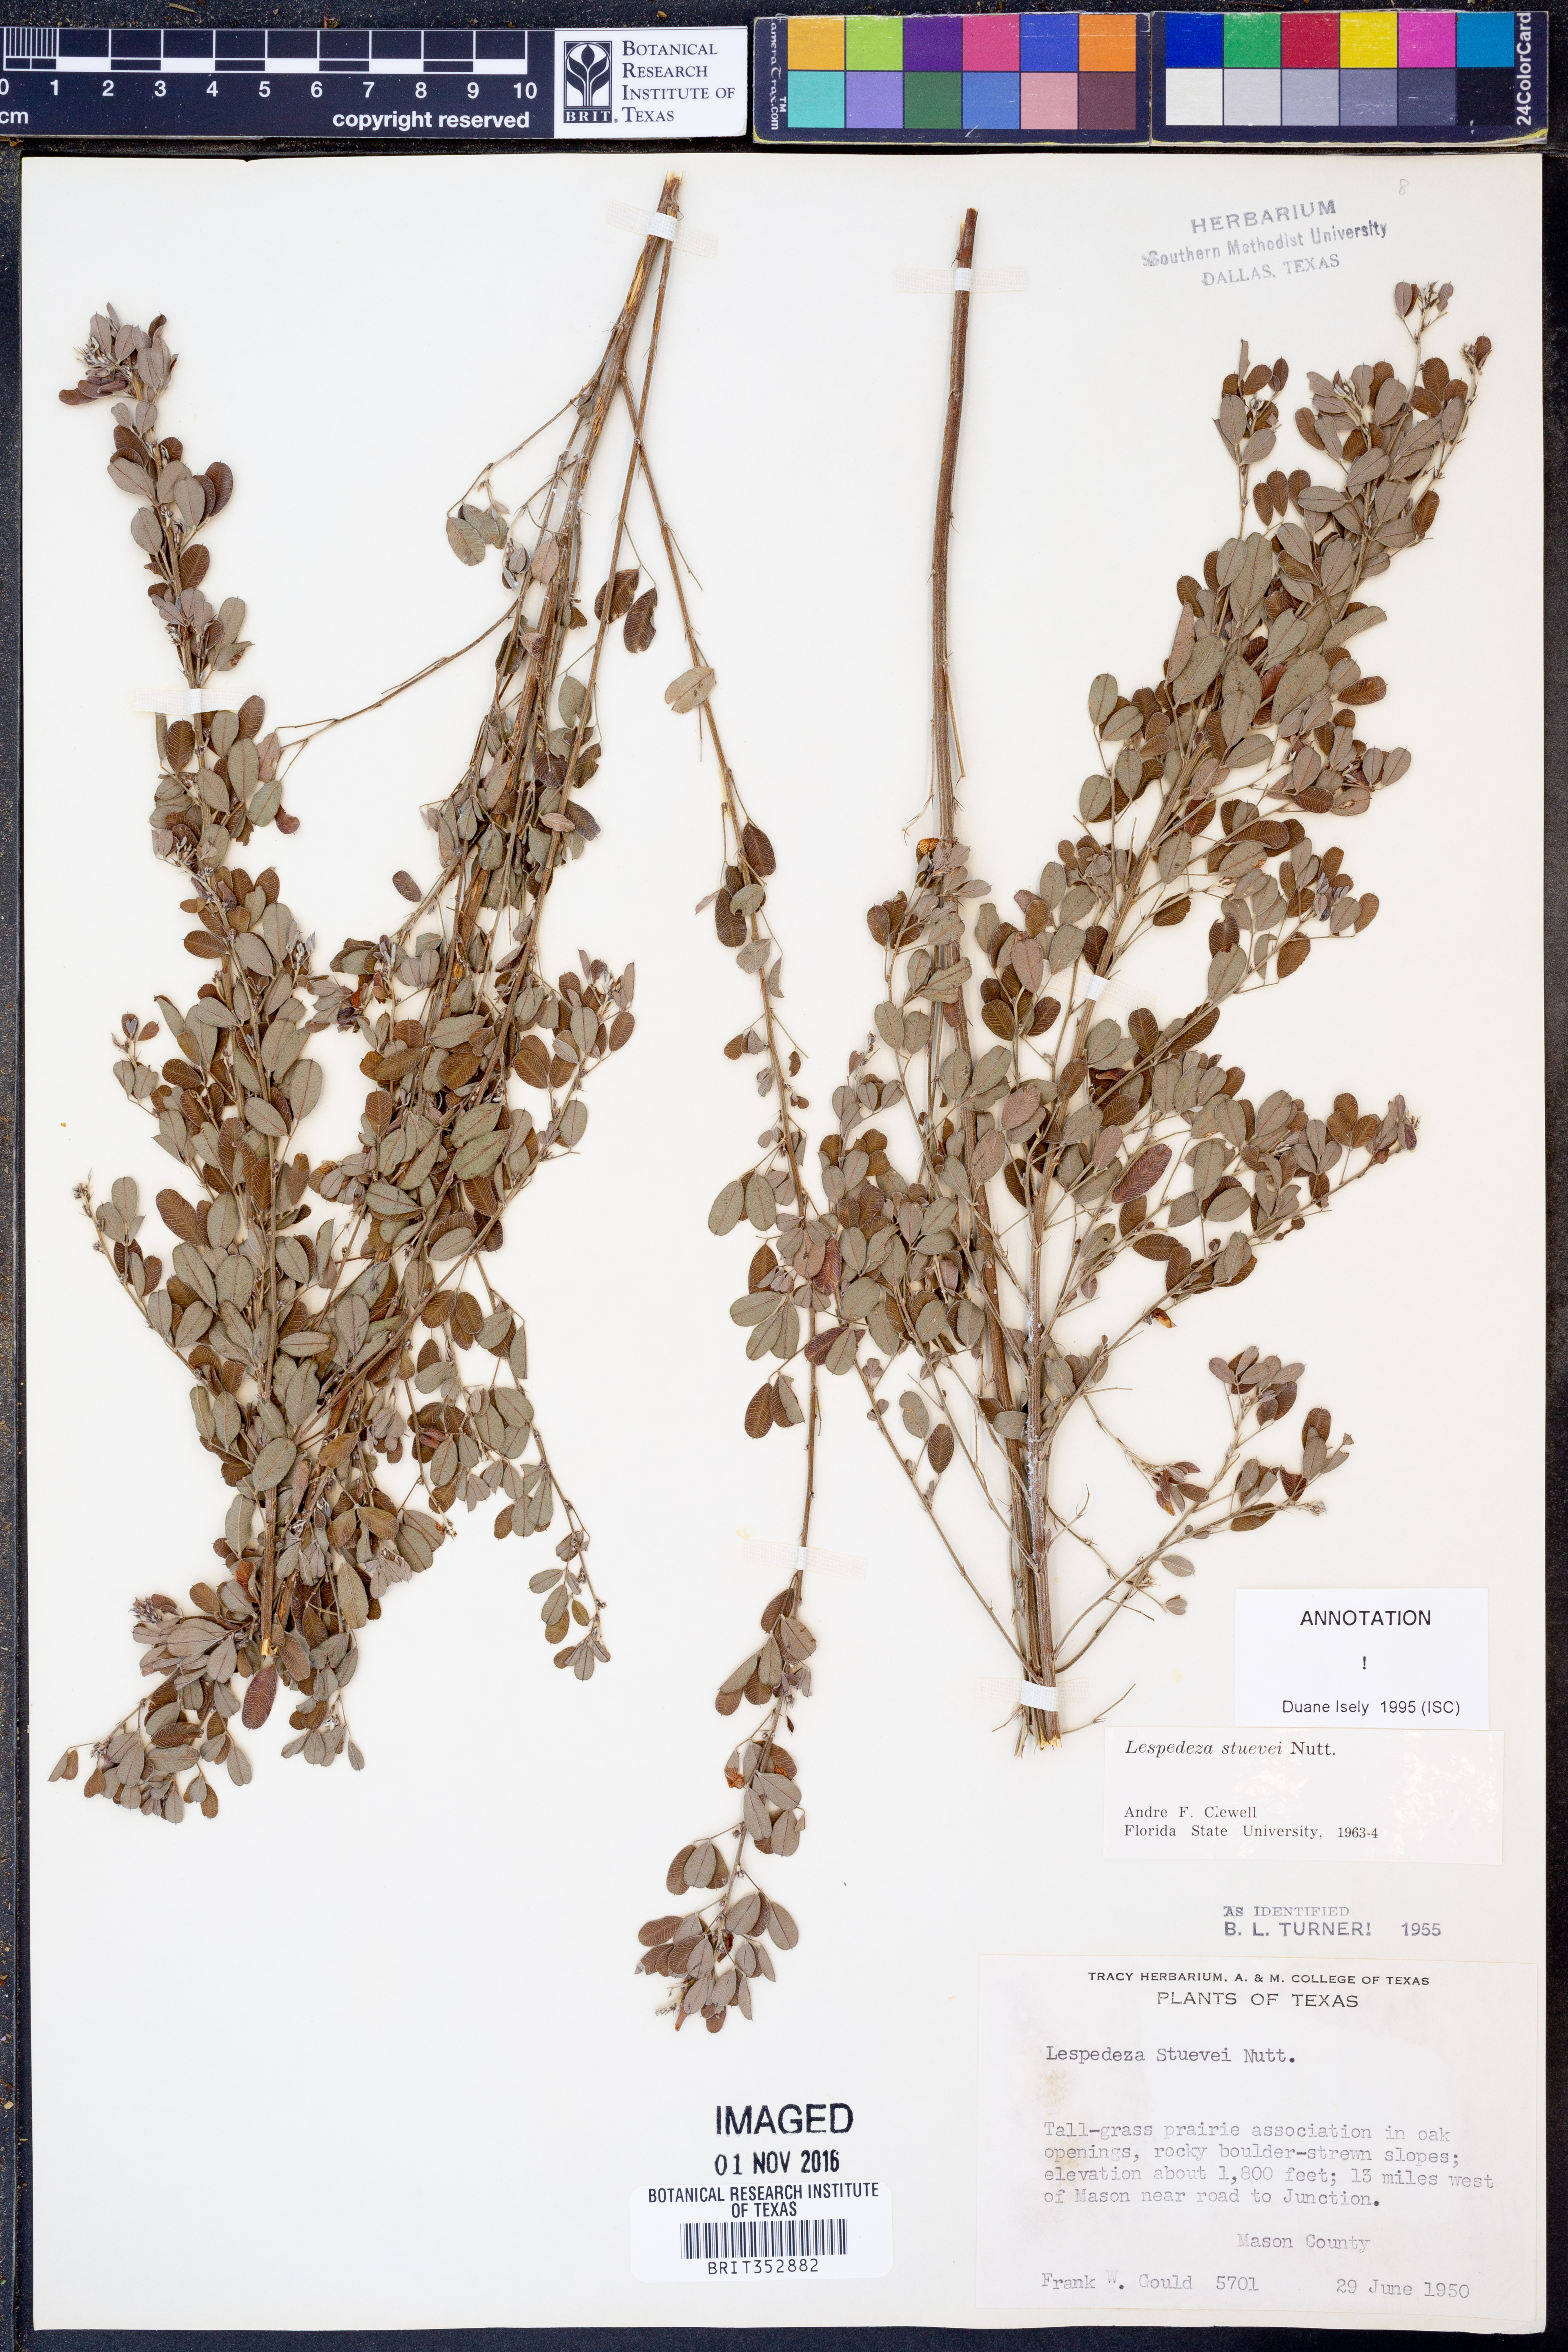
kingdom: Plantae
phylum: Tracheophyta
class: Magnoliopsida
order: Fabales
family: Fabaceae
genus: Lespedeza
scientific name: Lespedeza stuevei
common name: Tall bush-clover
